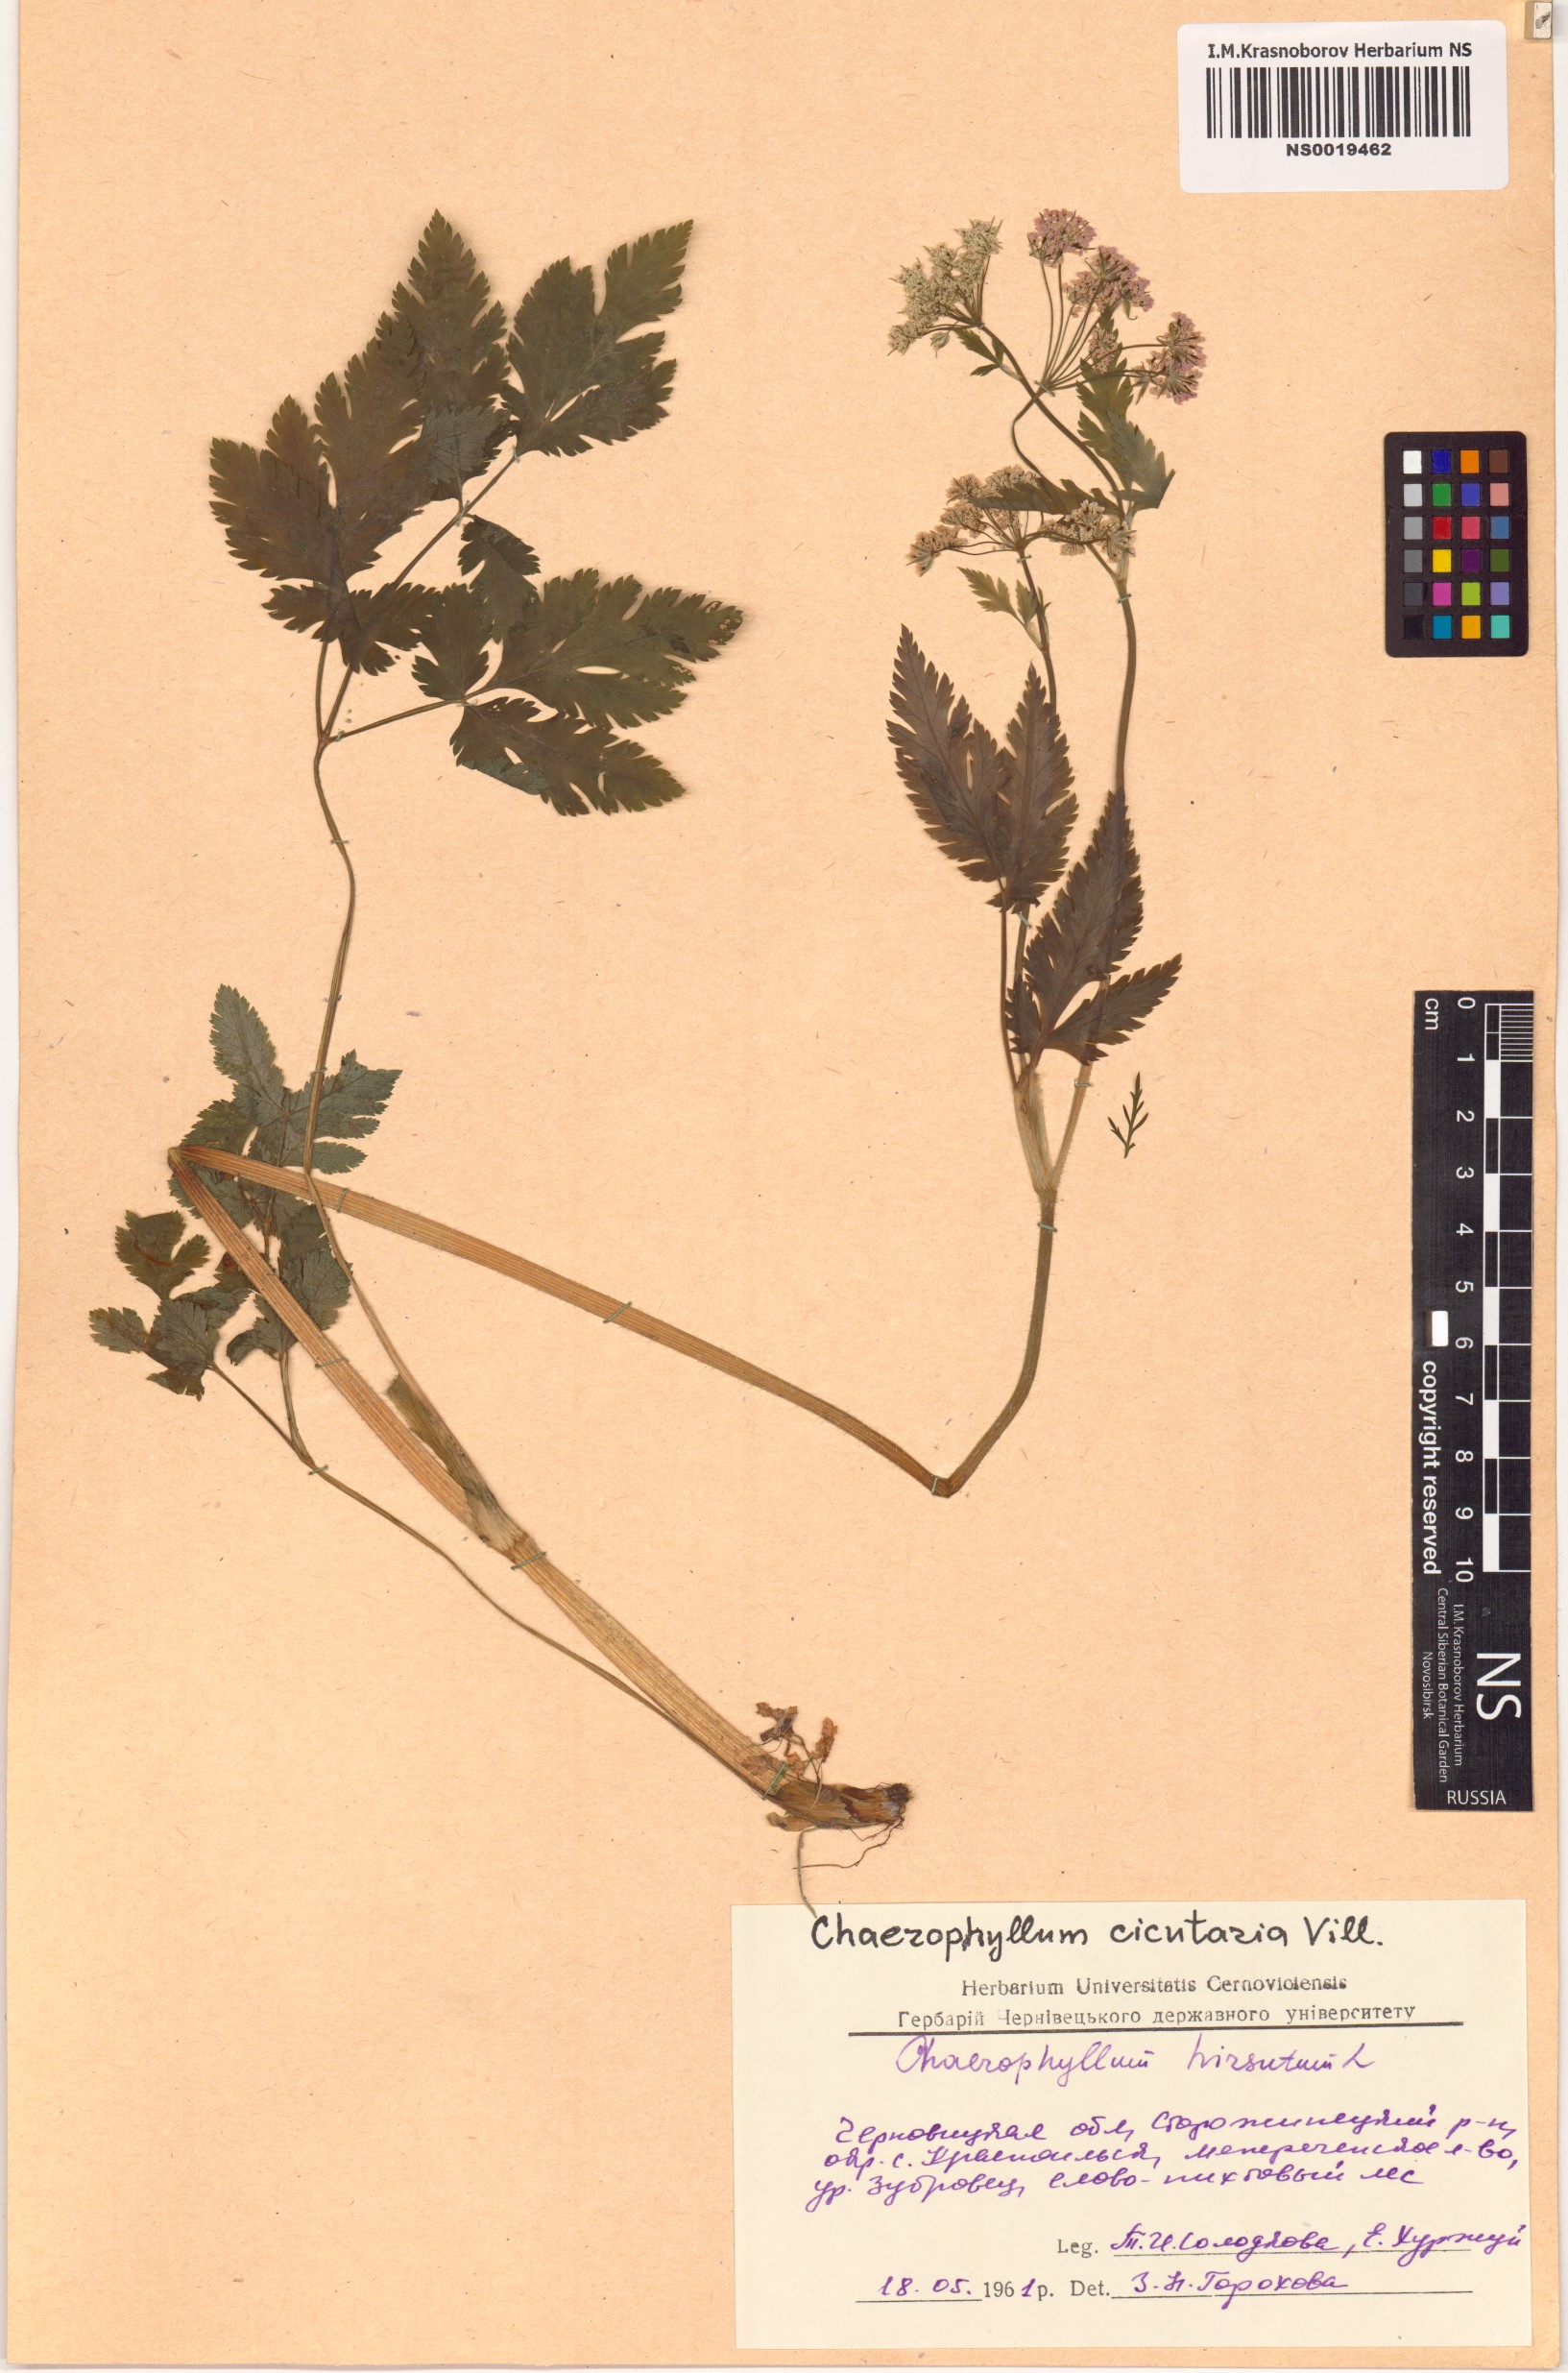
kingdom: Plantae
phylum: Tracheophyta
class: Magnoliopsida
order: Apiales
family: Apiaceae
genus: Chaerophyllum
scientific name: Chaerophyllum hirsutum
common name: Hairy chervil
